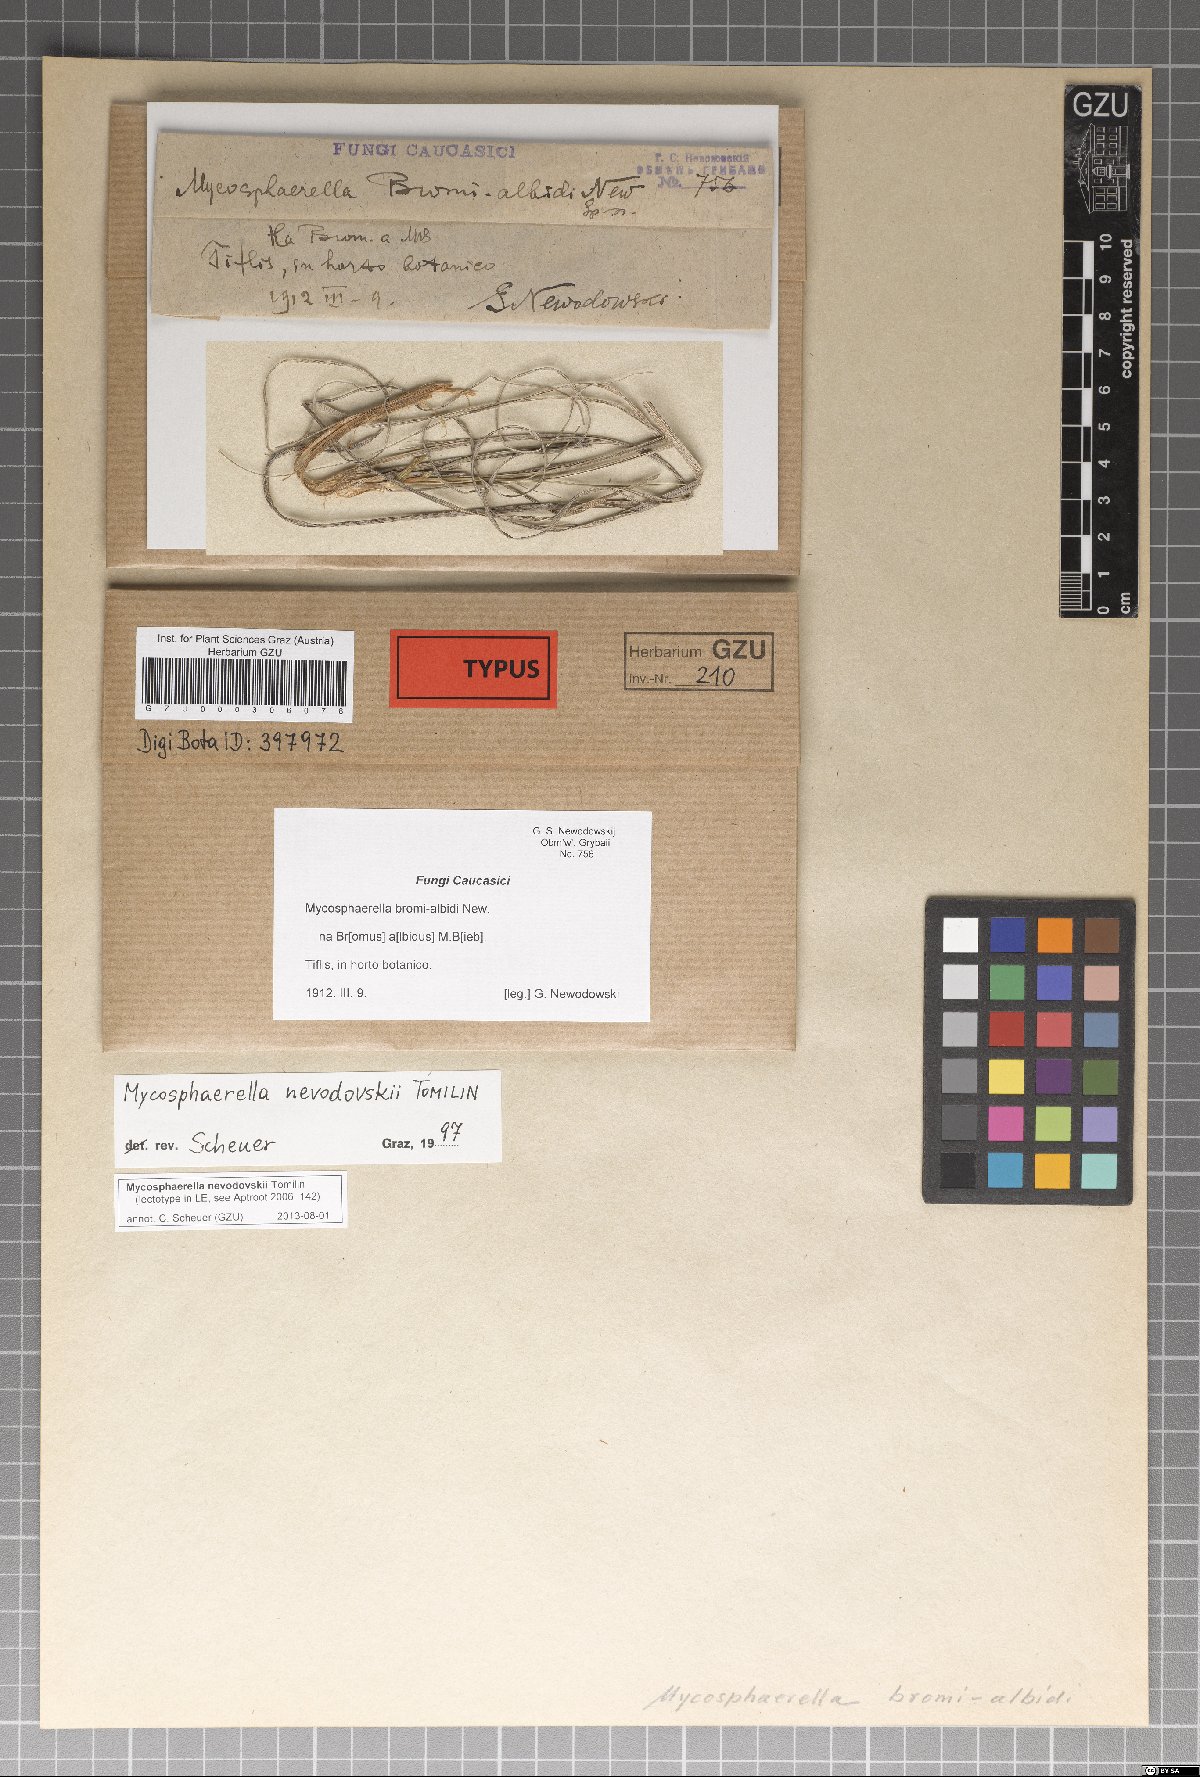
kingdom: Fungi
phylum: Ascomycota
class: Dothideomycetes
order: Mycosphaerellales
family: Mycosphaerellaceae
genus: Mycosphaerella
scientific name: Mycosphaerella nevodovskii
